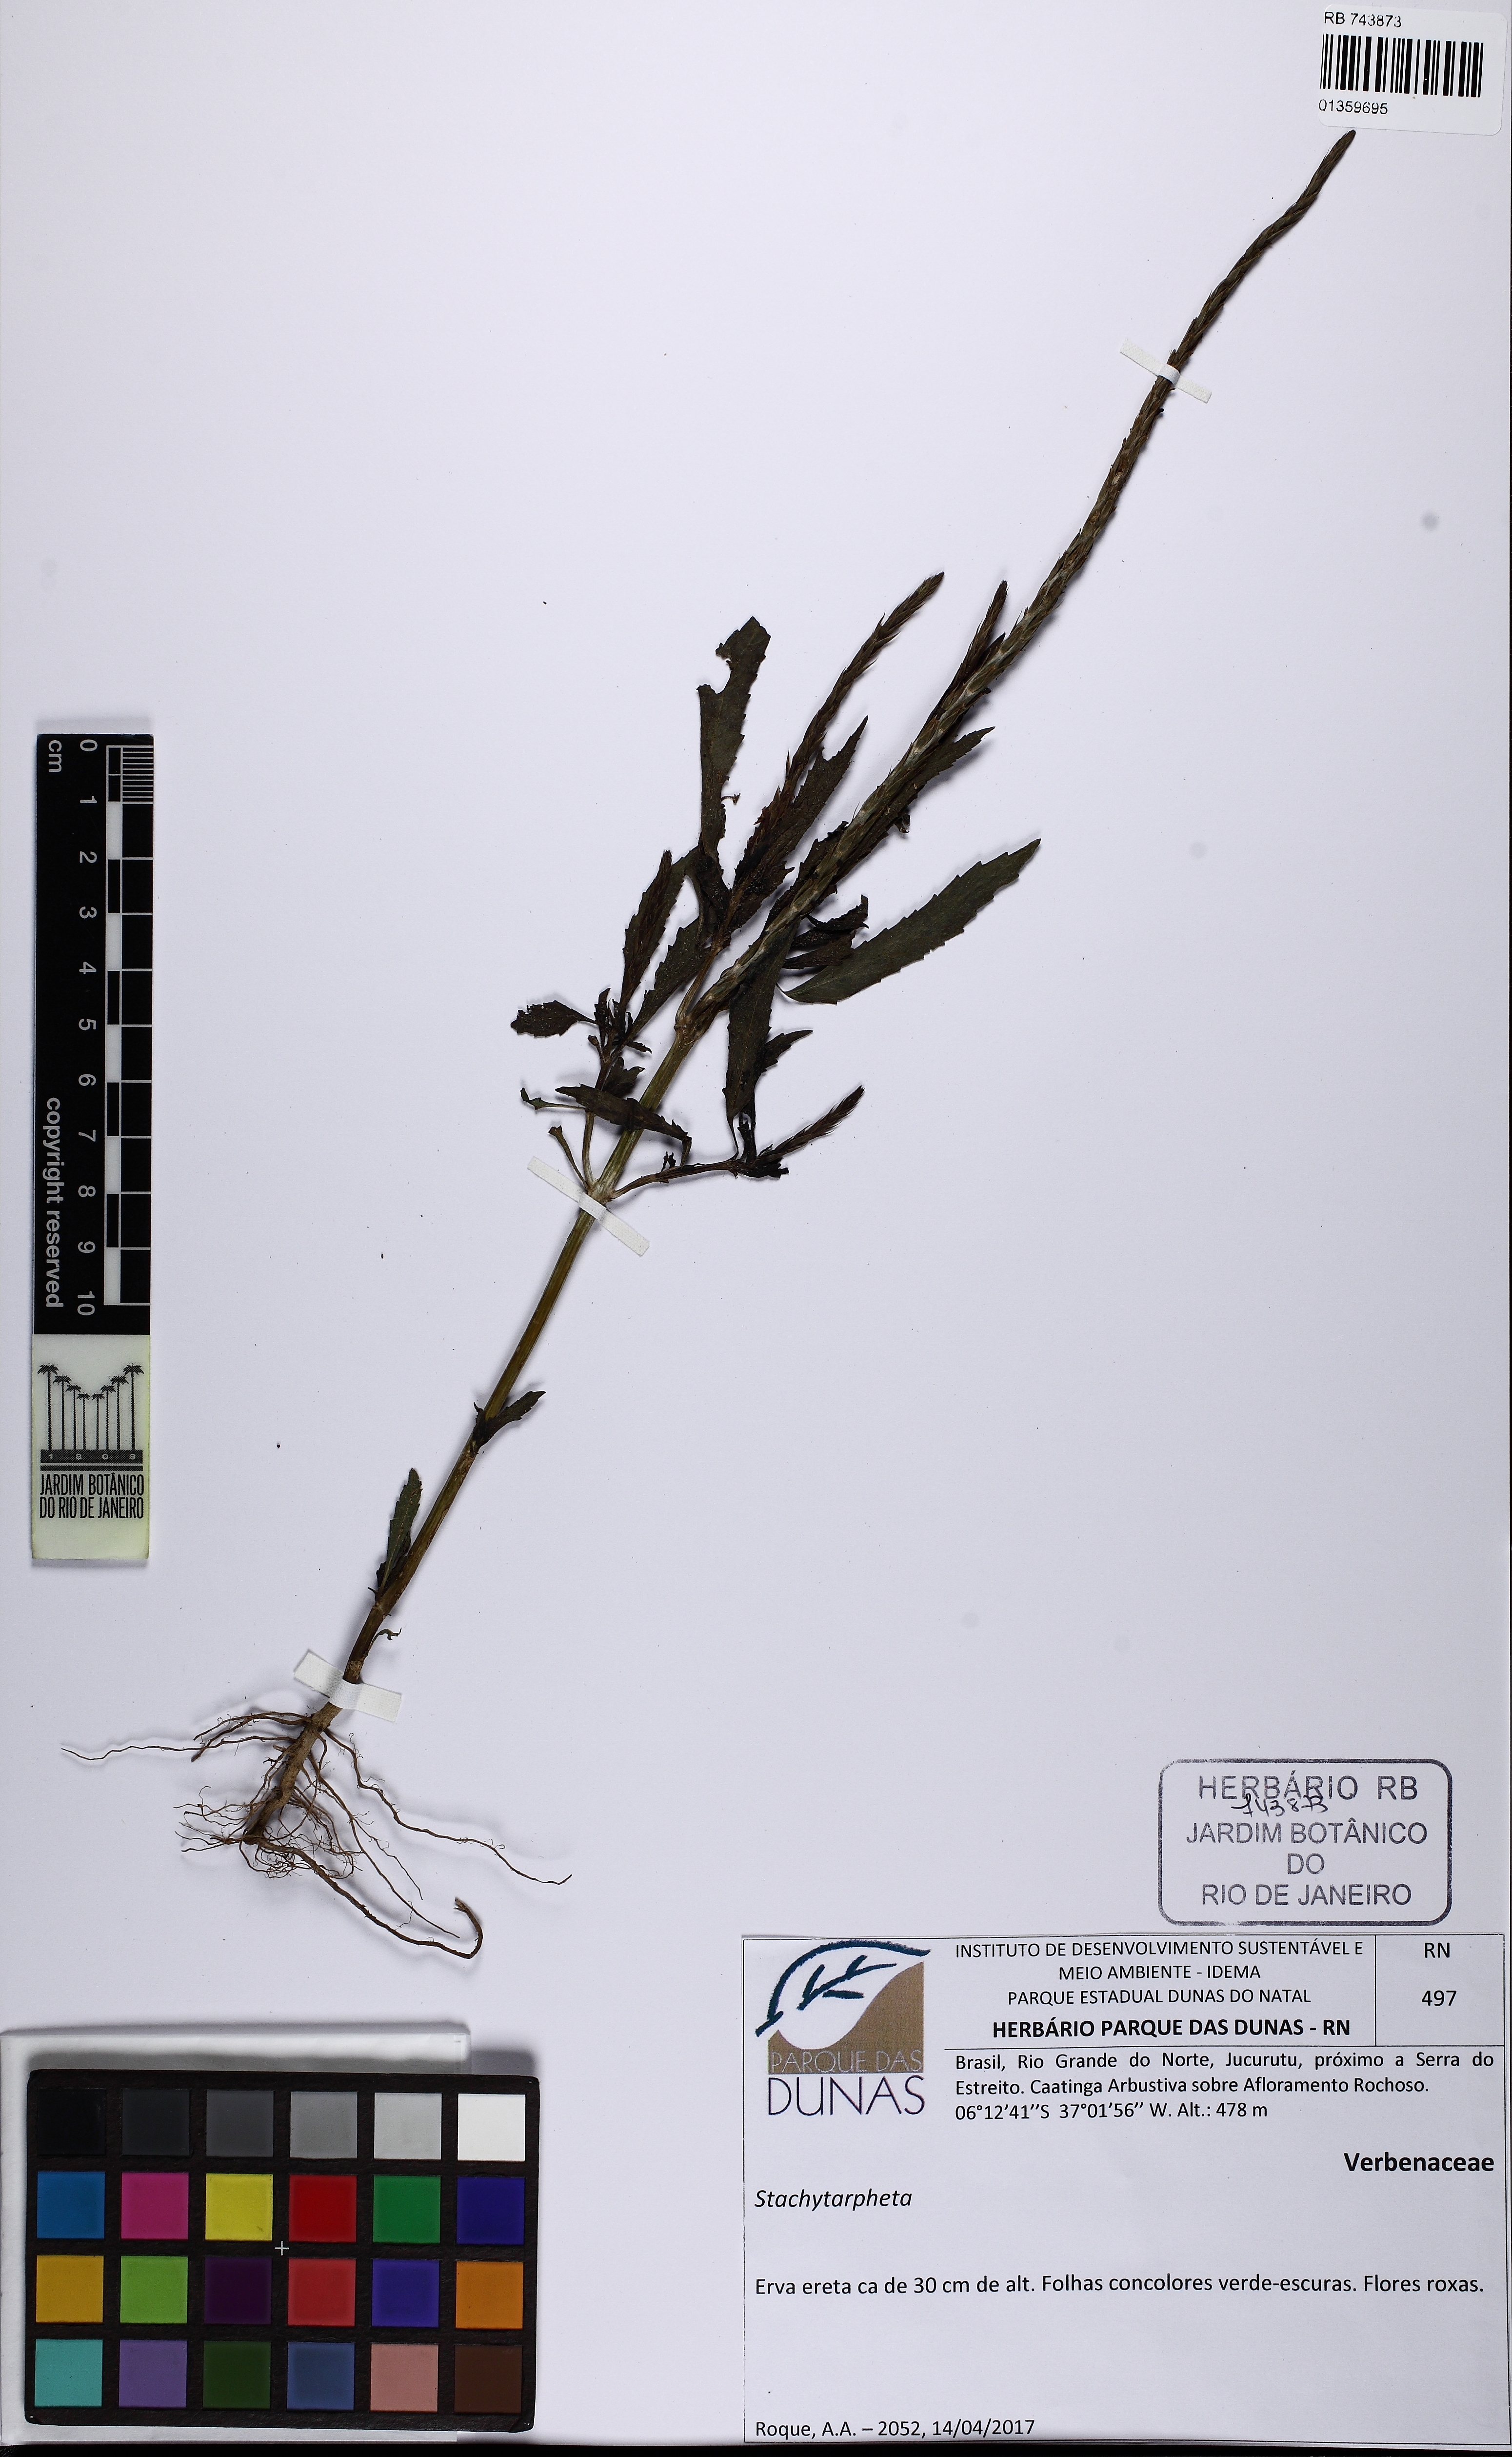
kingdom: Plantae
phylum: Tracheophyta
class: Magnoliopsida
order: Lamiales
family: Verbenaceae
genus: Stachytarpheta
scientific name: Stachytarpheta indica
